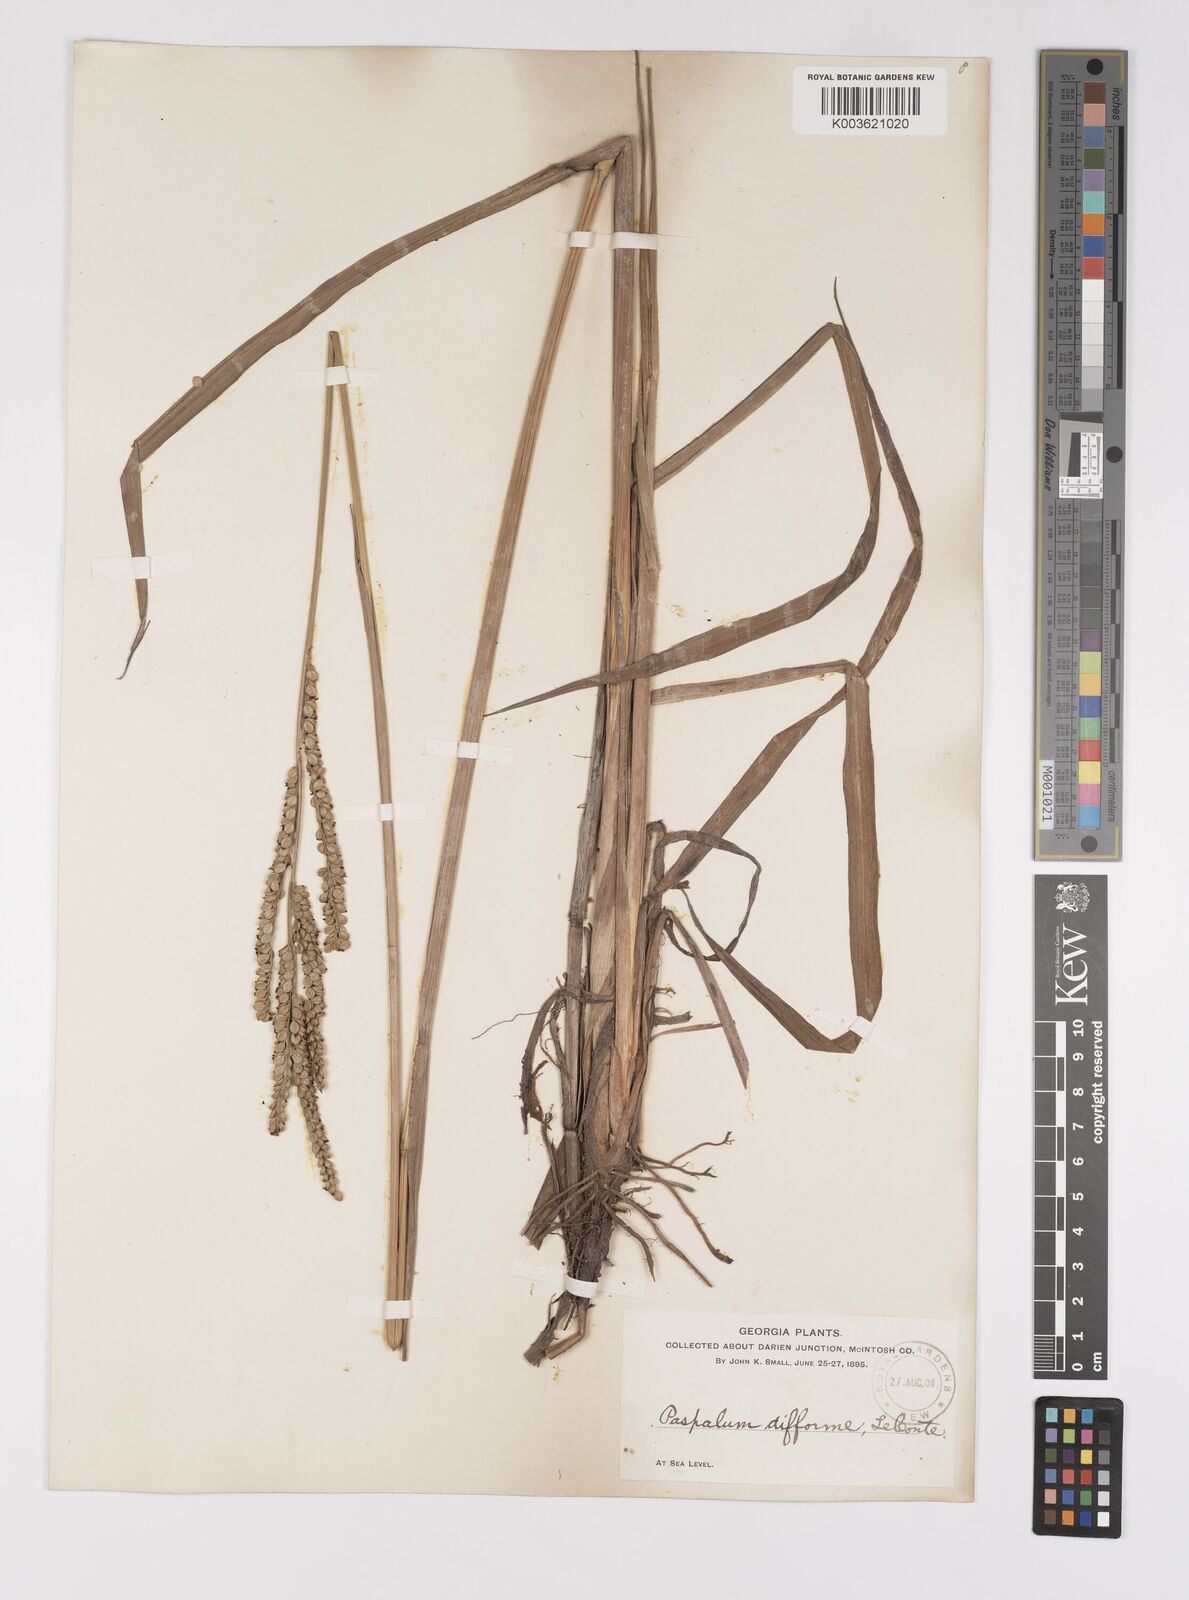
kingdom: Plantae
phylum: Tracheophyta
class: Liliopsida
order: Poales
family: Poaceae
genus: Paspalum
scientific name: Paspalum floridanum
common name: Florida paspalum
